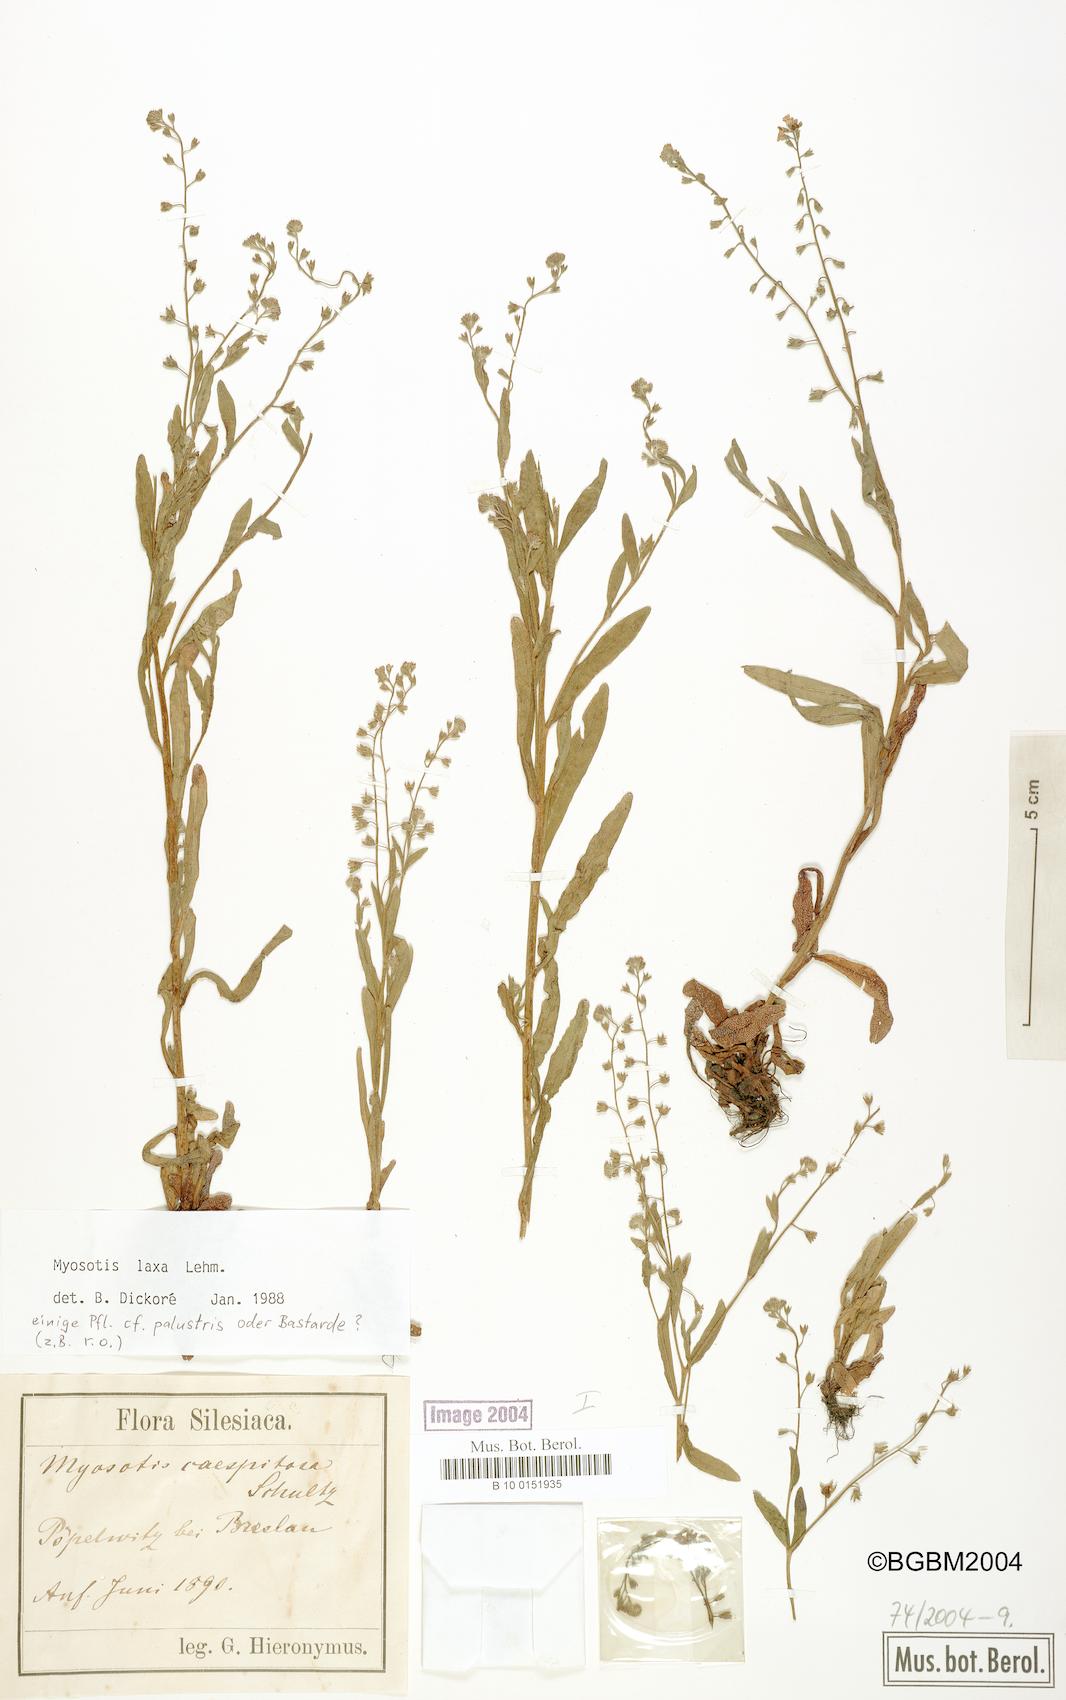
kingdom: Plantae
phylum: Tracheophyta
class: Magnoliopsida
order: Boraginales
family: Boraginaceae
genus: Myosotis
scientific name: Myosotis laxa
